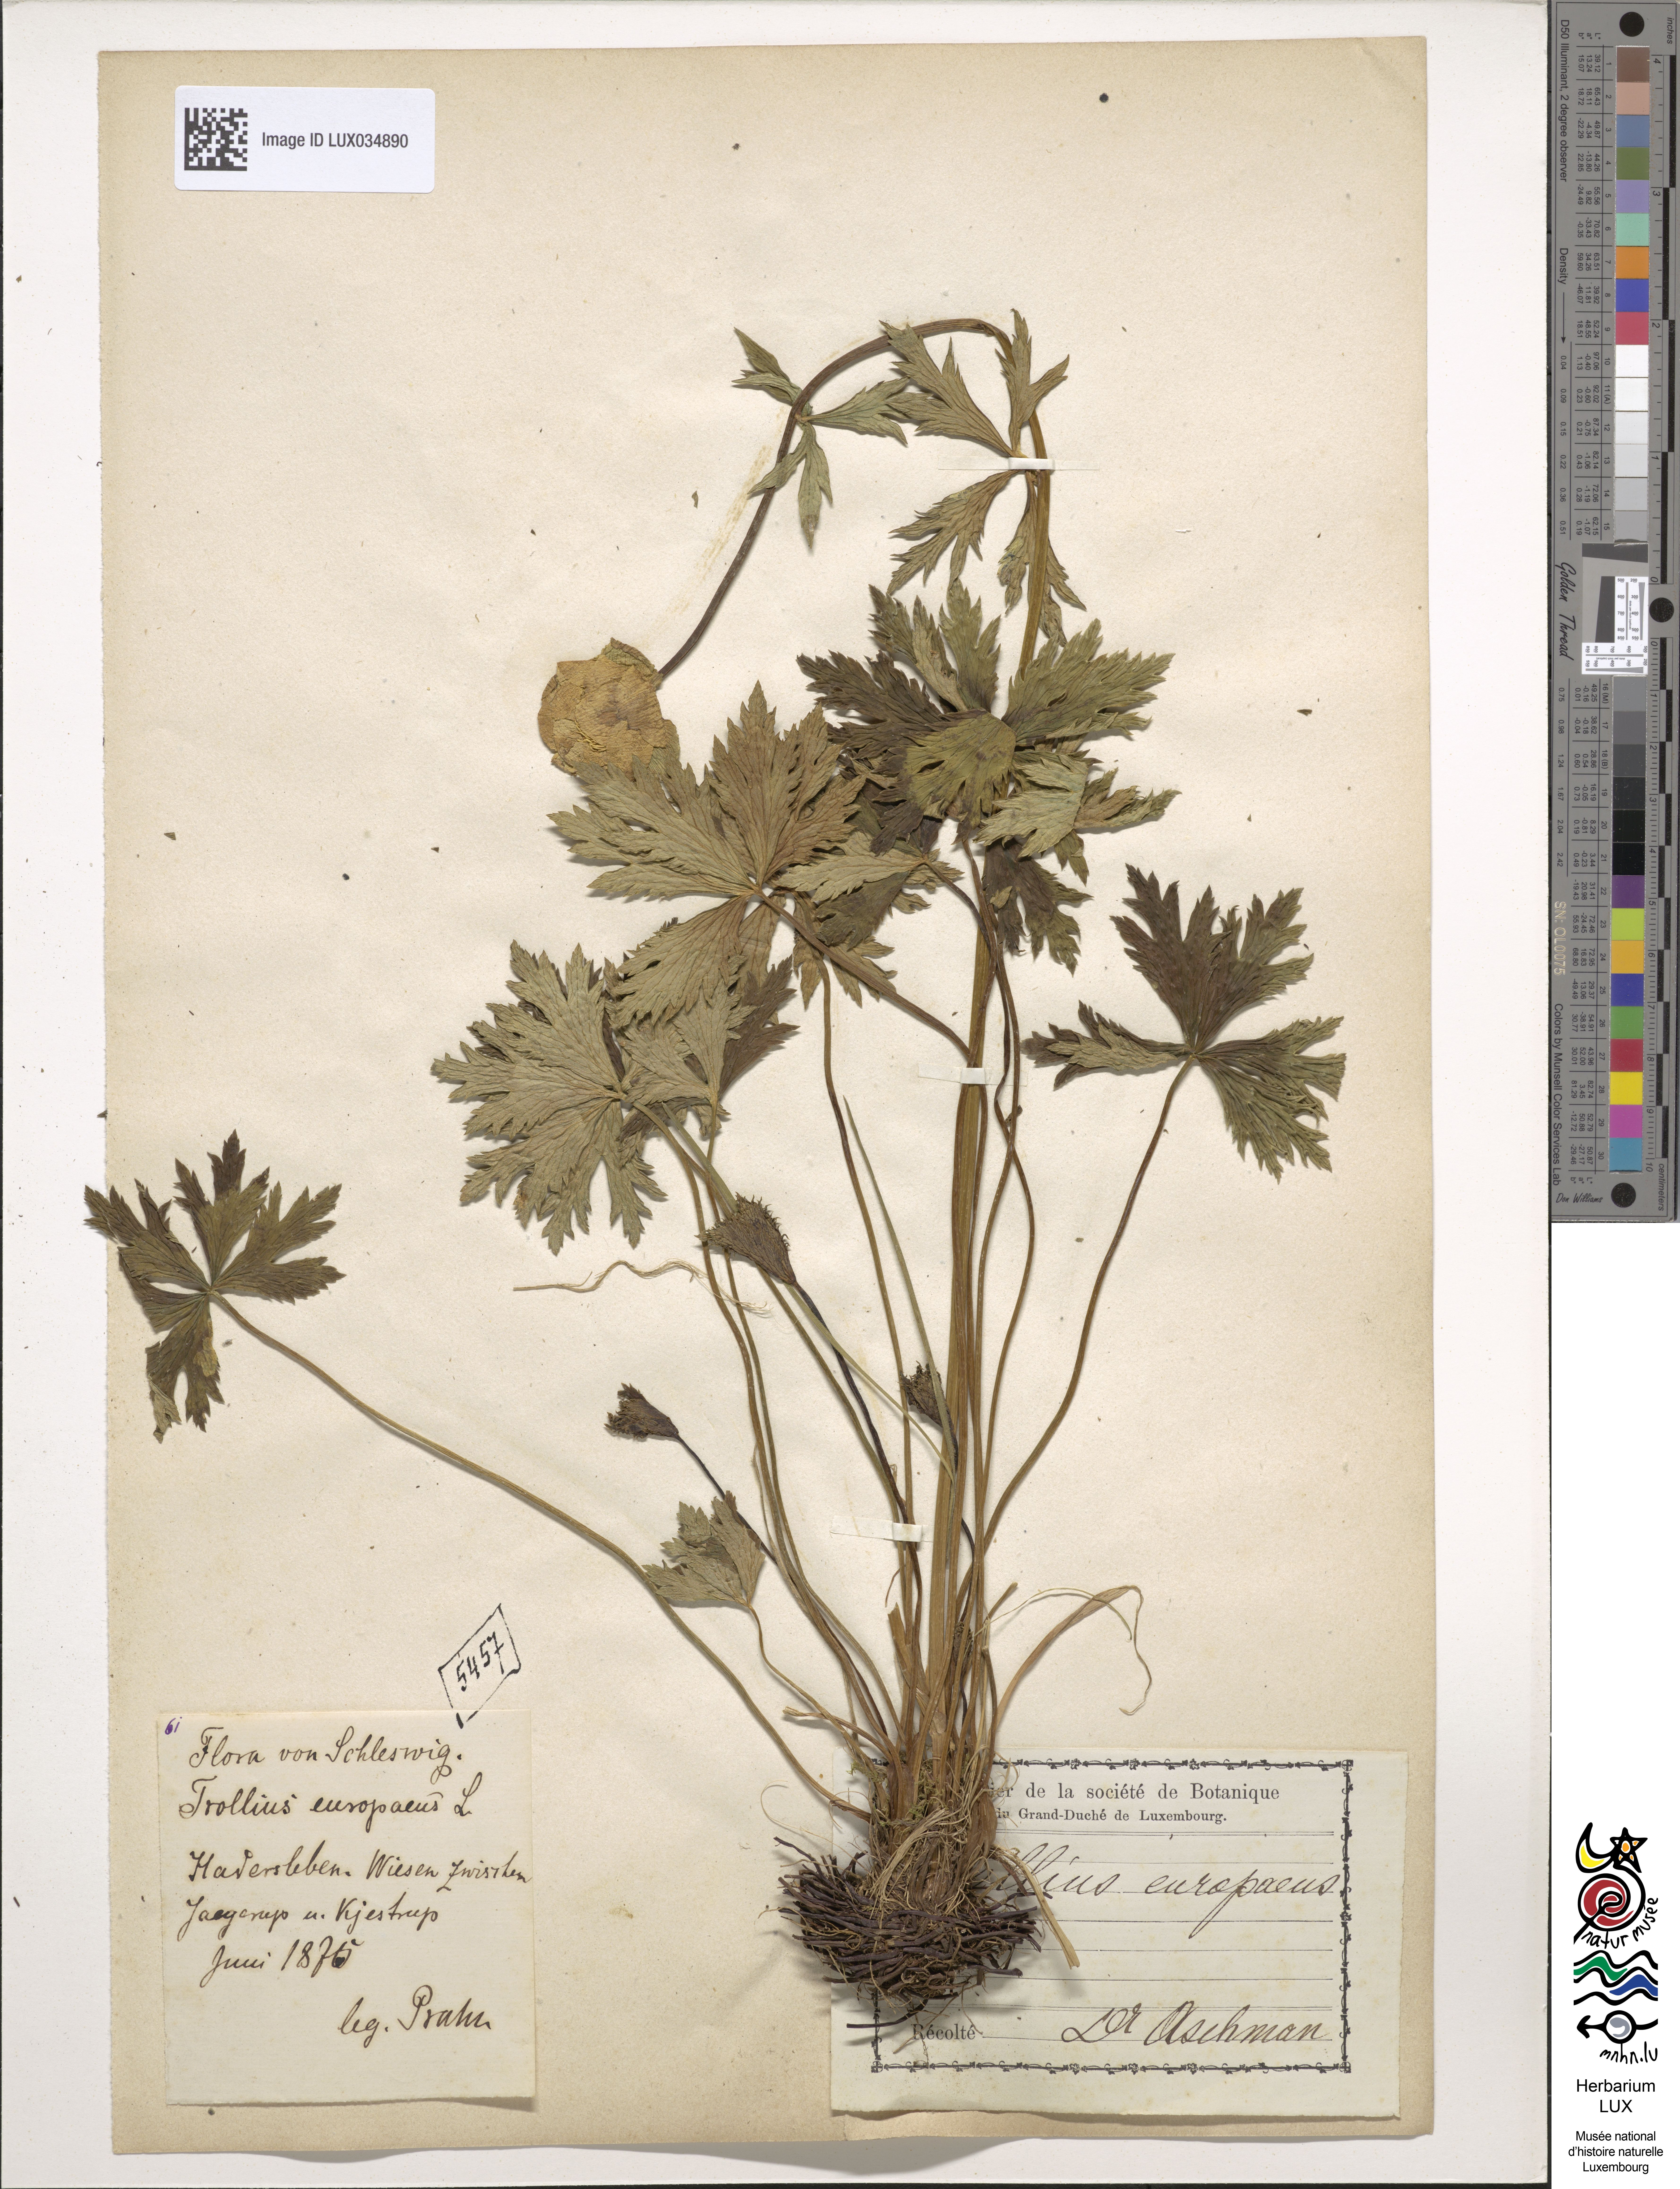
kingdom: Plantae
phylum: Tracheophyta
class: Magnoliopsida
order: Ranunculales
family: Ranunculaceae
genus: Trollius
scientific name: Trollius europaeus
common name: European globeflower
